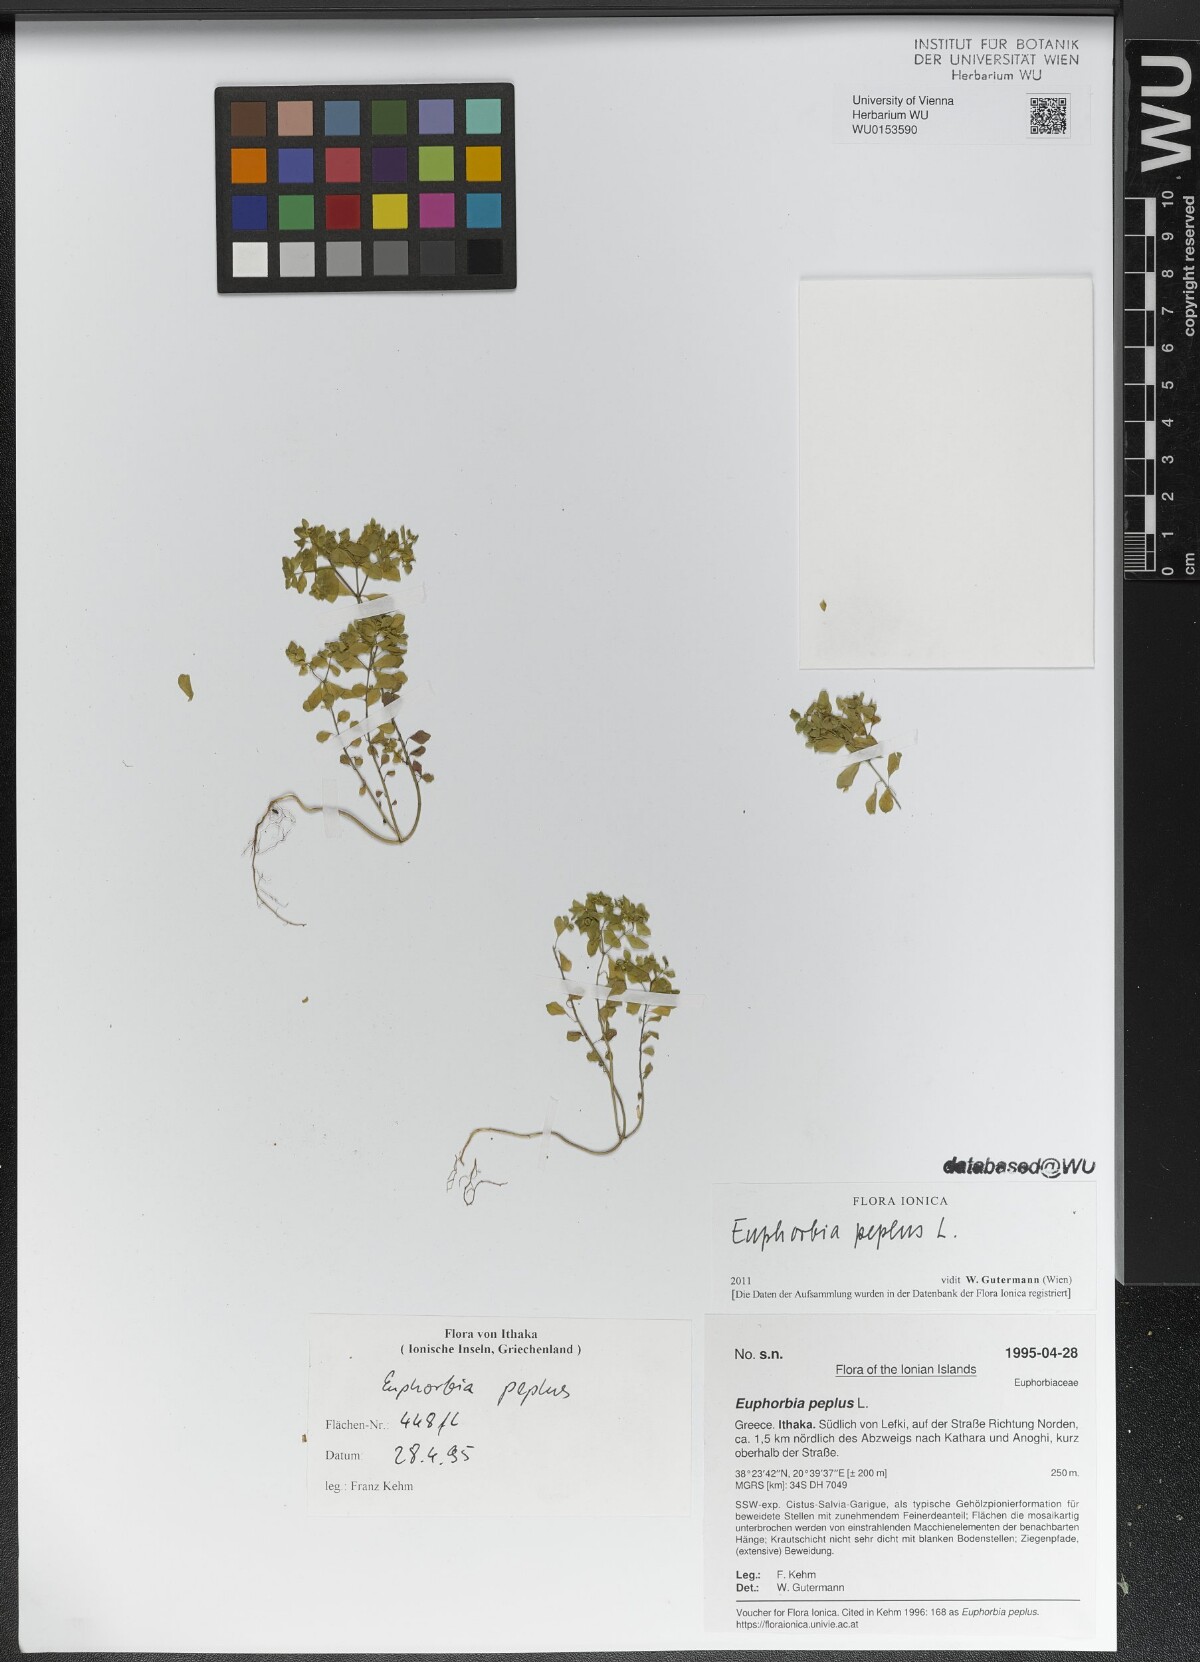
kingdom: Plantae
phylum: Tracheophyta
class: Magnoliopsida
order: Malpighiales
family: Euphorbiaceae
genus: Euphorbia
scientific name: Euphorbia peplus
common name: Petty spurge
